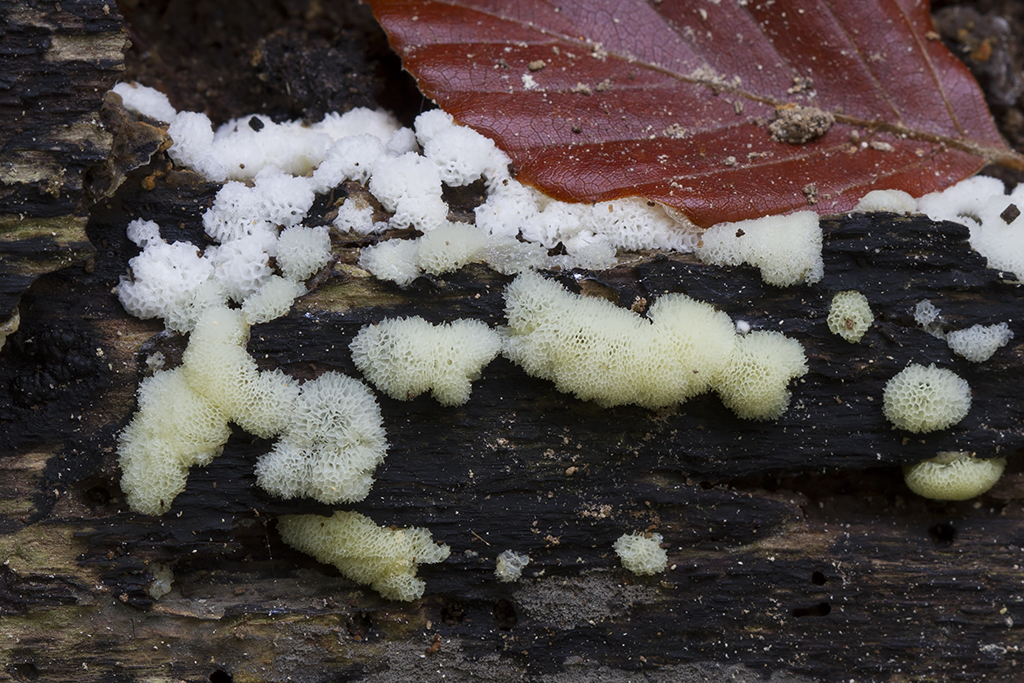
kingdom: Protozoa
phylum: Mycetozoa
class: Protosteliomycetes
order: Ceratiomyxales
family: Ceratiomyxaceae
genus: Ceratiomyxa
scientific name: Ceratiomyxa fruticulosa
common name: Honeycomb coral slime mold
